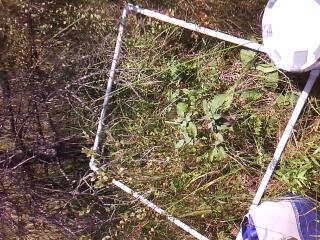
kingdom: Plantae
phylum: Tracheophyta
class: Liliopsida
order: Poales
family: Cyperaceae
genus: Carex
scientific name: Carex
